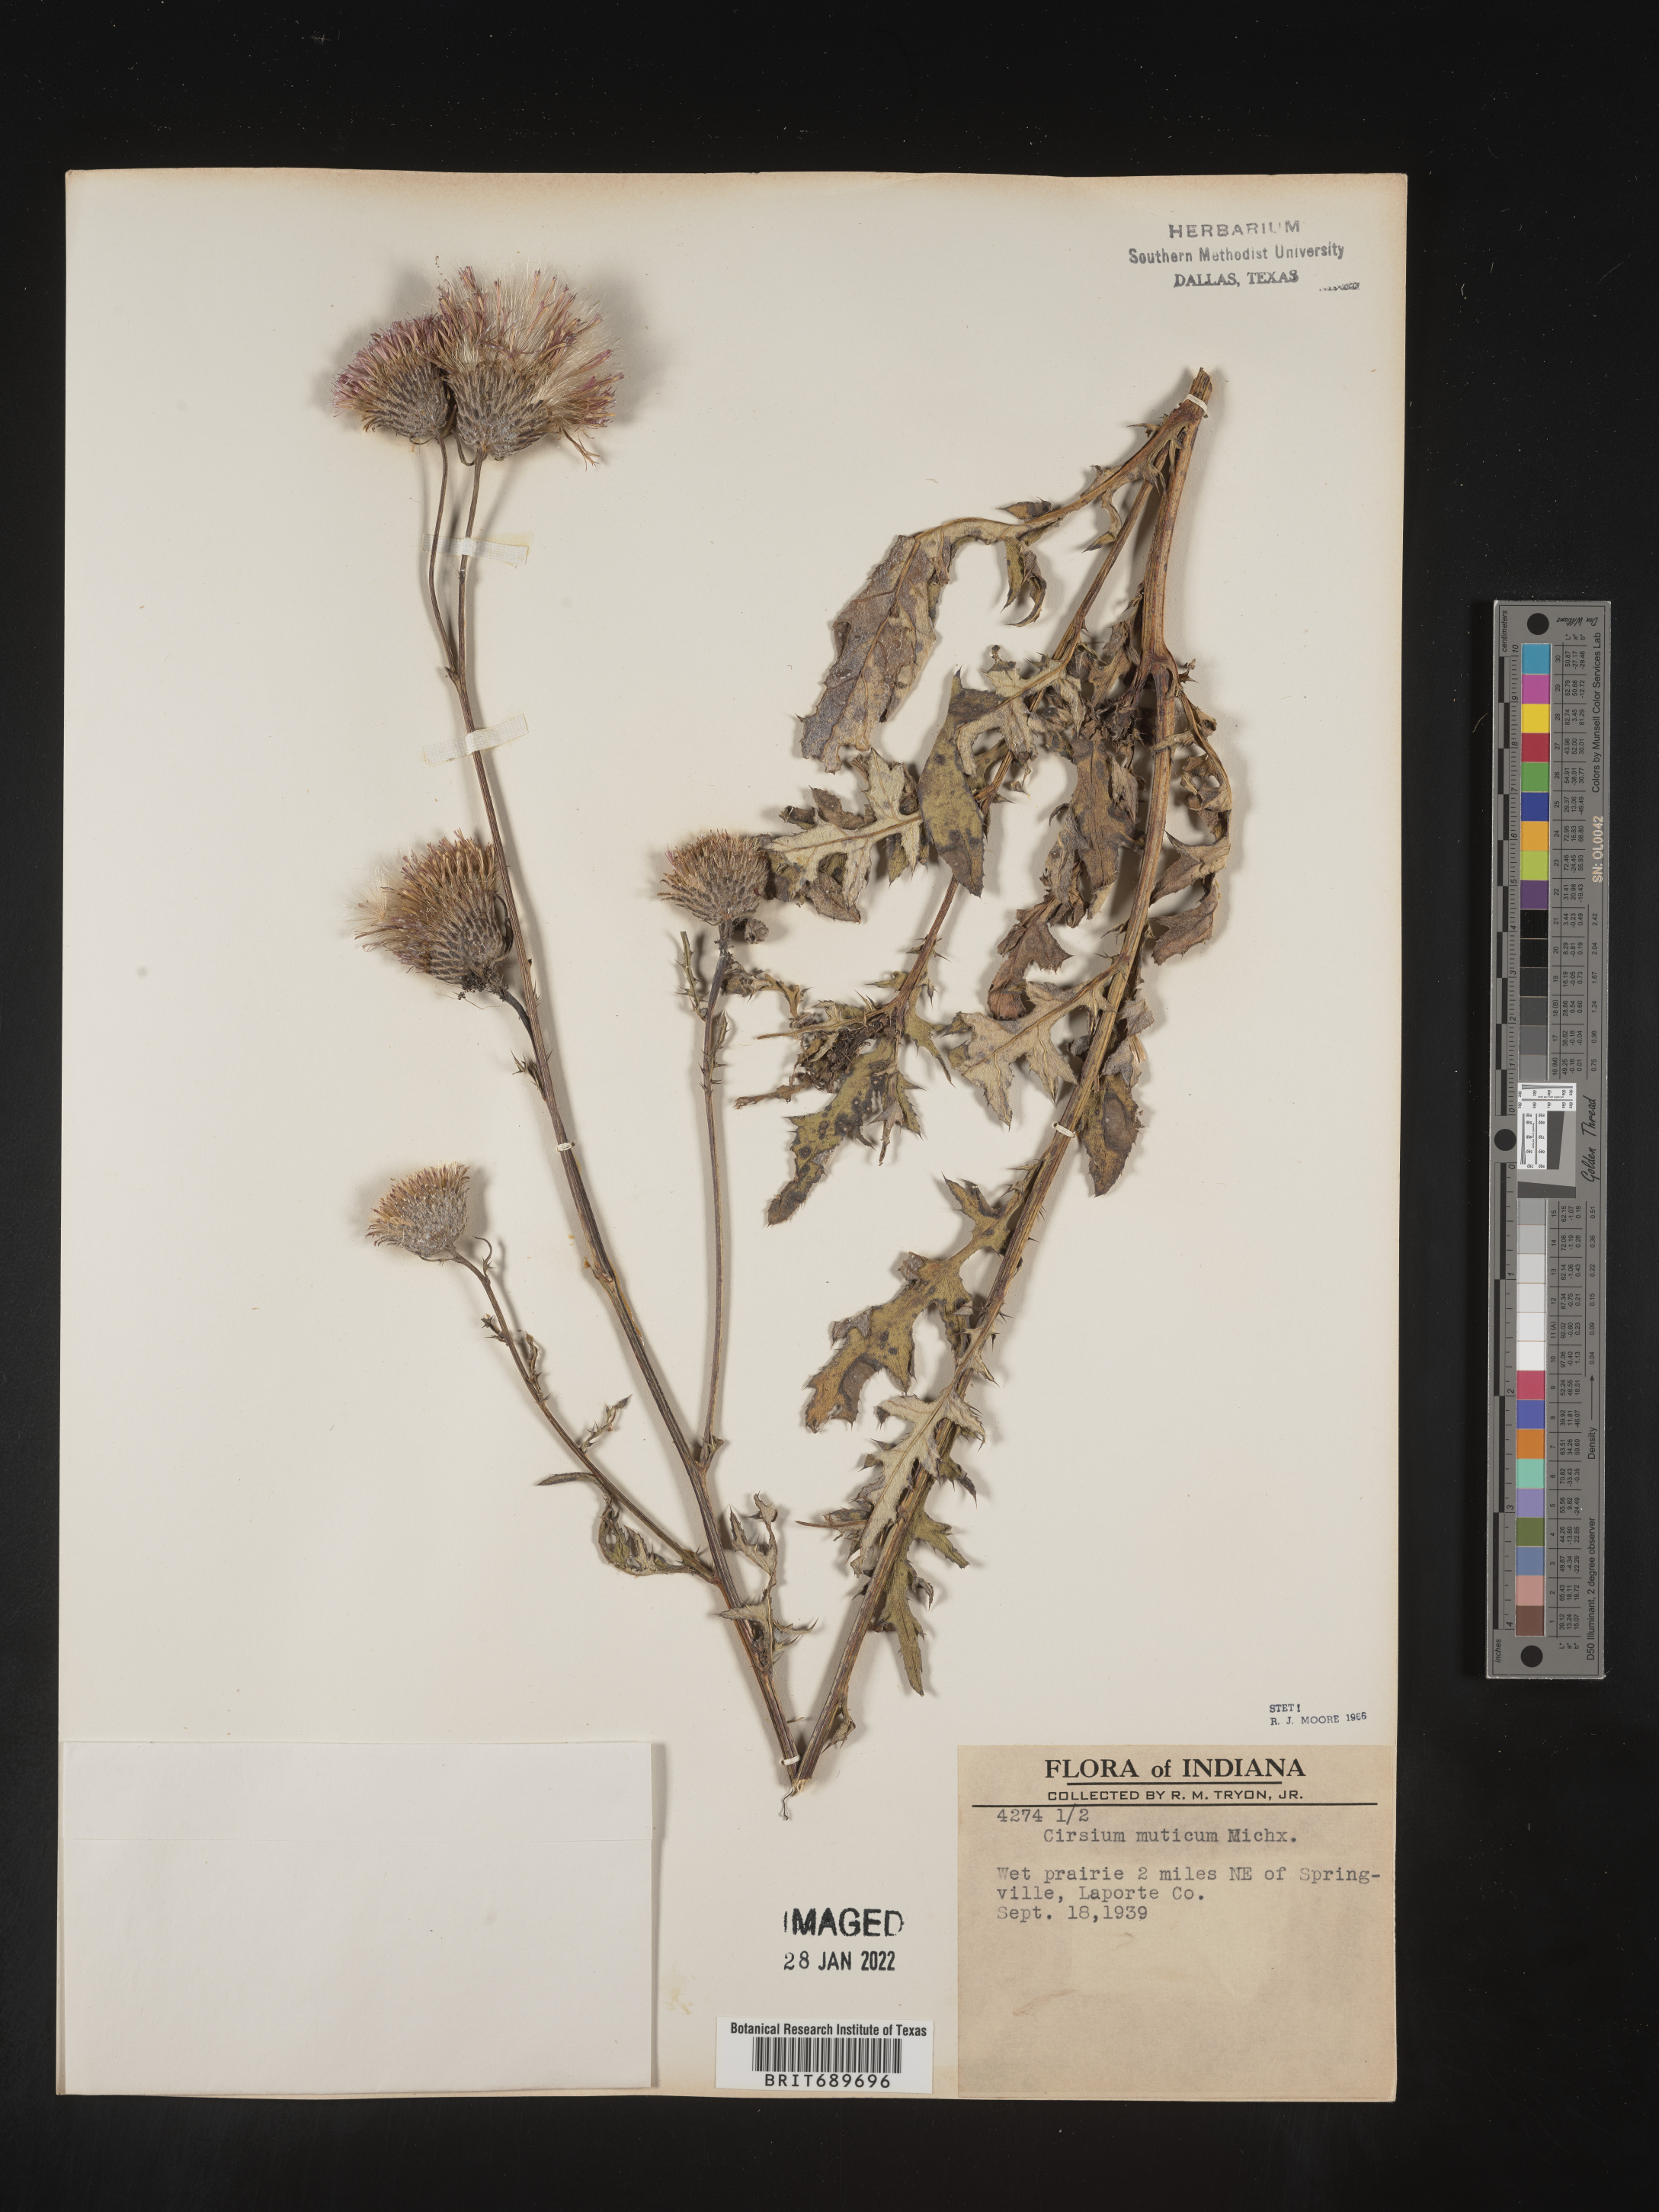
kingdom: Plantae
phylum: Tracheophyta
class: Magnoliopsida
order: Asterales
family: Asteraceae
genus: Cirsium
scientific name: Cirsium muticum
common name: Dunce-nettle
